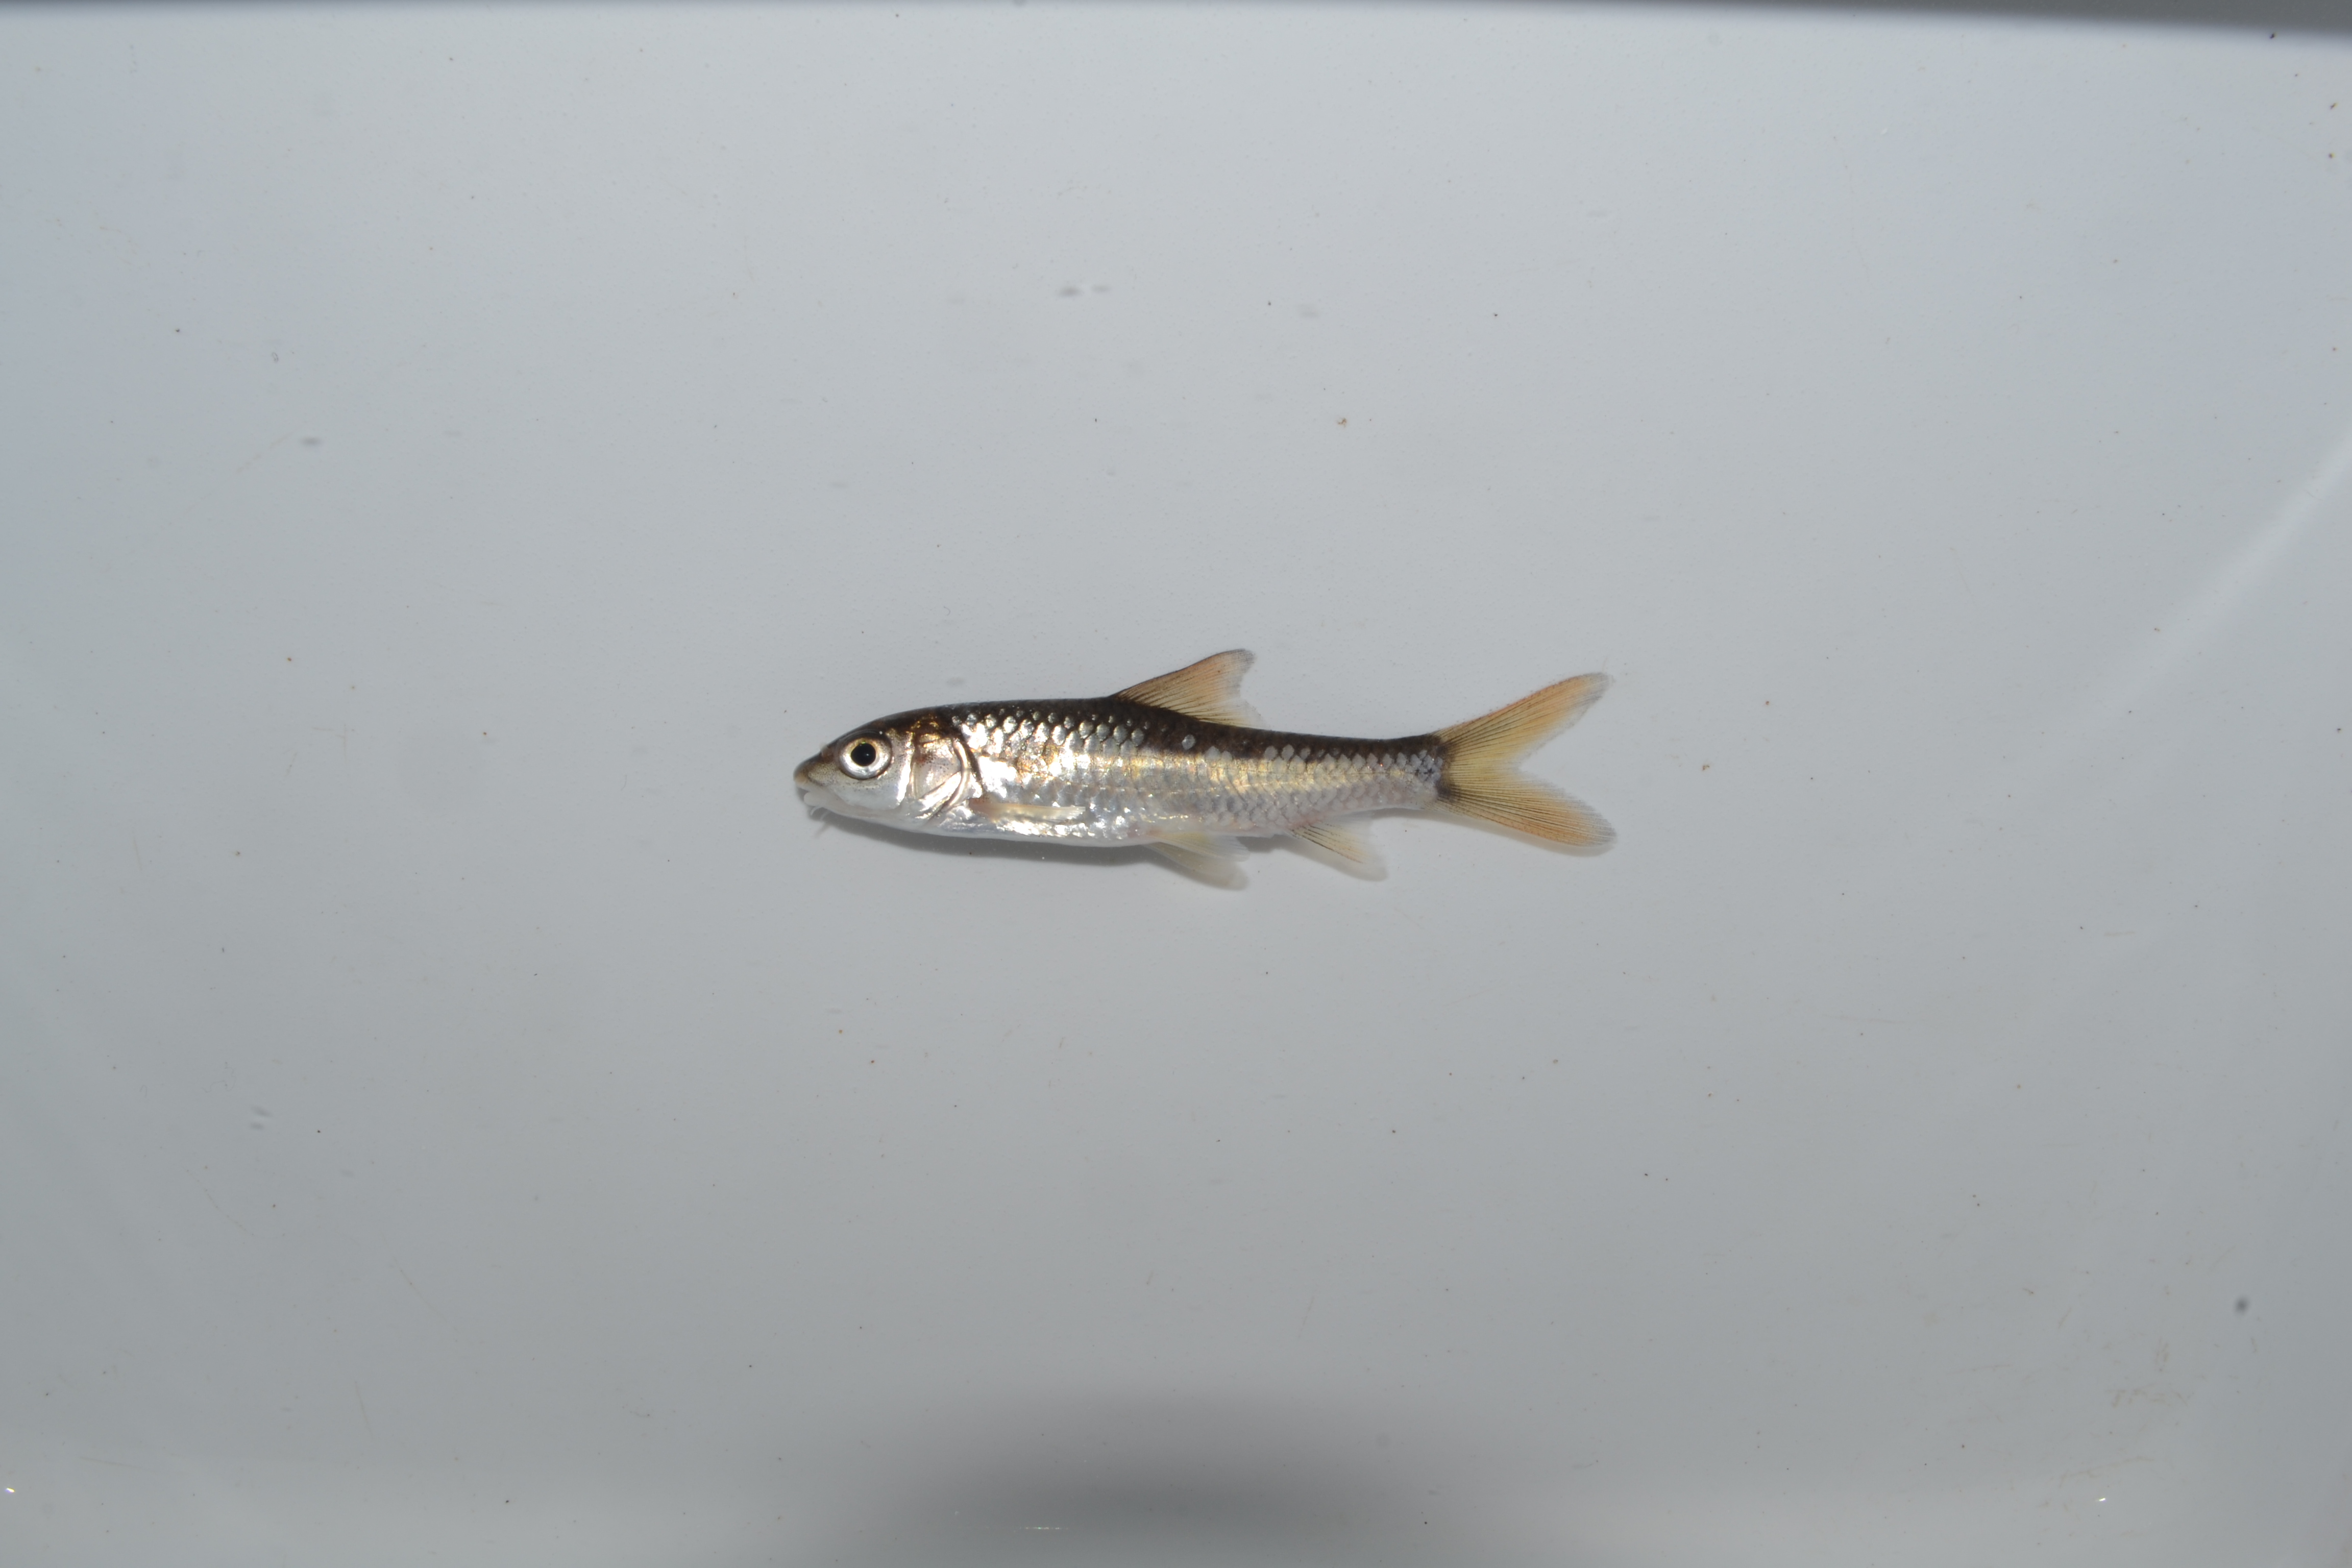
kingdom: Animalia
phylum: Chordata
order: Cypriniformes
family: Cyprinidae
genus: Labeobarbus
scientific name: Labeobarbus
